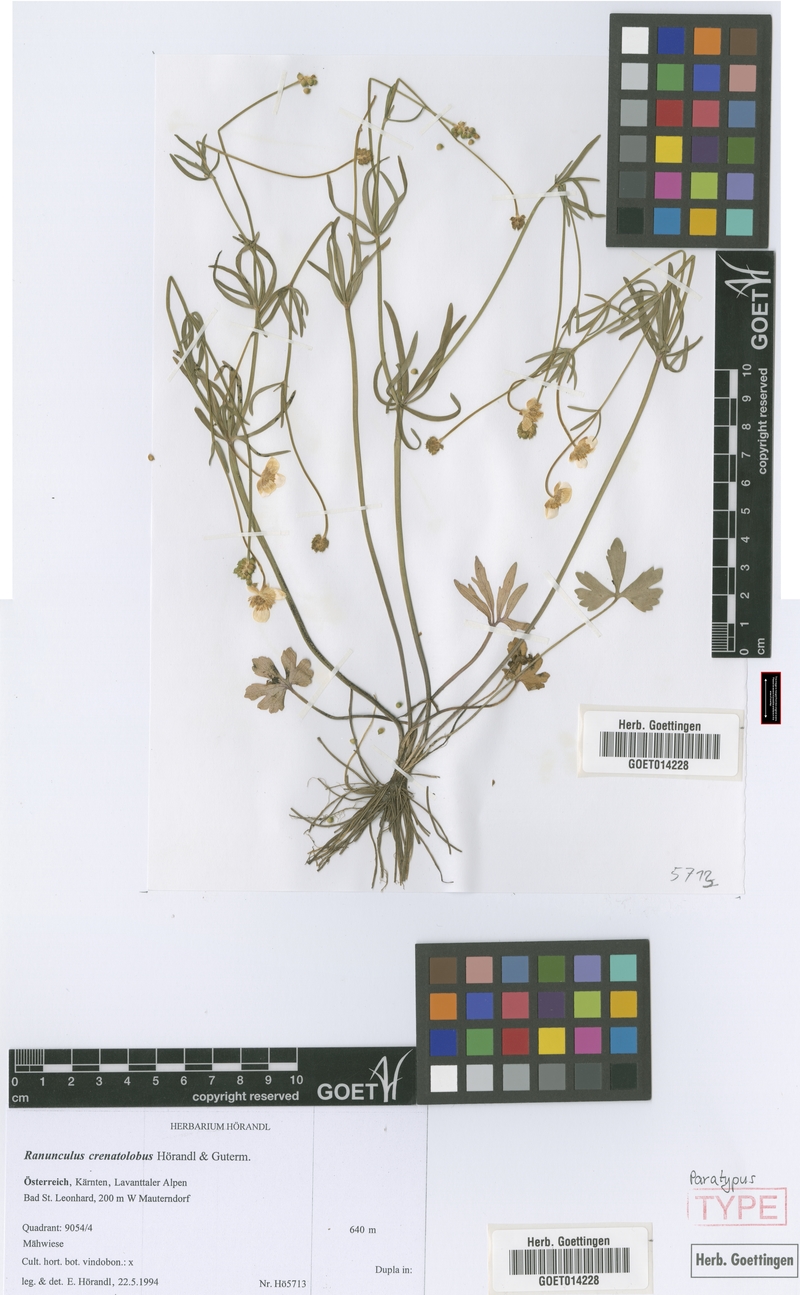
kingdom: Plantae
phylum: Tracheophyta
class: Magnoliopsida
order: Ranunculales
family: Ranunculaceae
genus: Ranunculus
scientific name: Ranunculus crenatolobus
